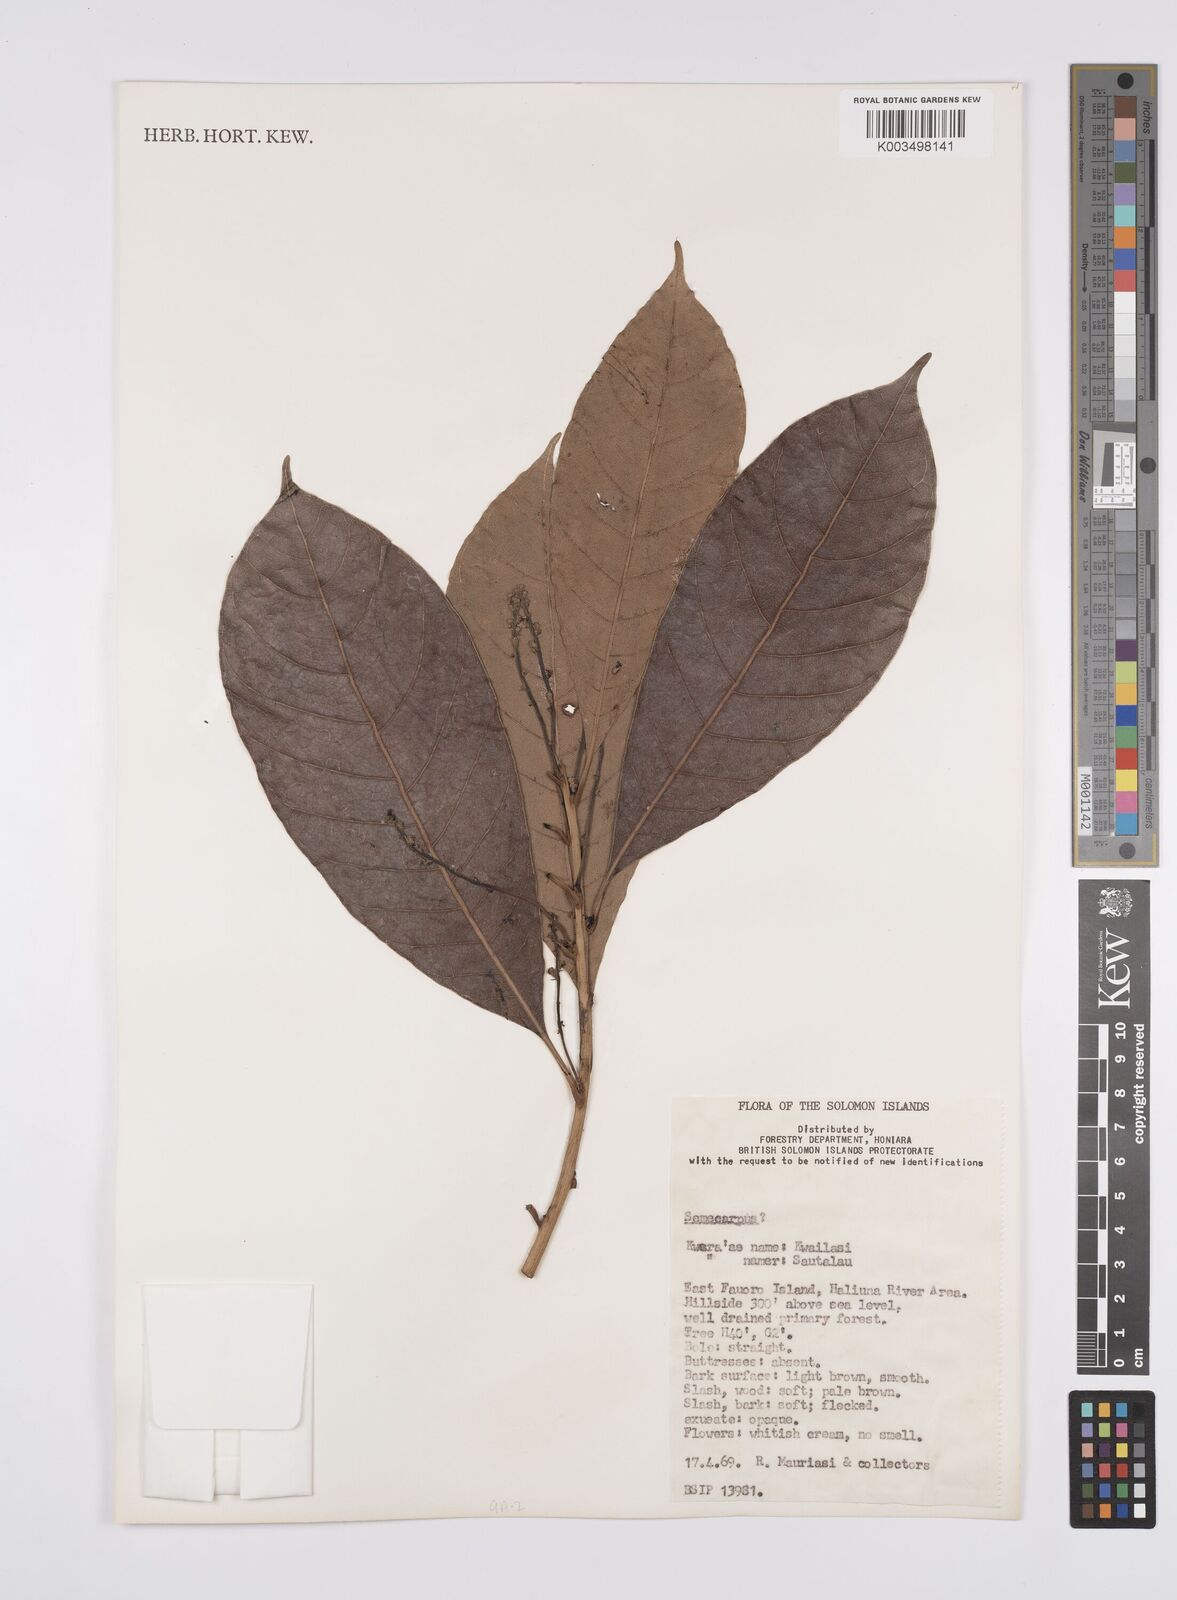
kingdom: Plantae
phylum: Tracheophyta
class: Magnoliopsida
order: Sapindales
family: Anacardiaceae
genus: Semecarpus
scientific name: Semecarpus
